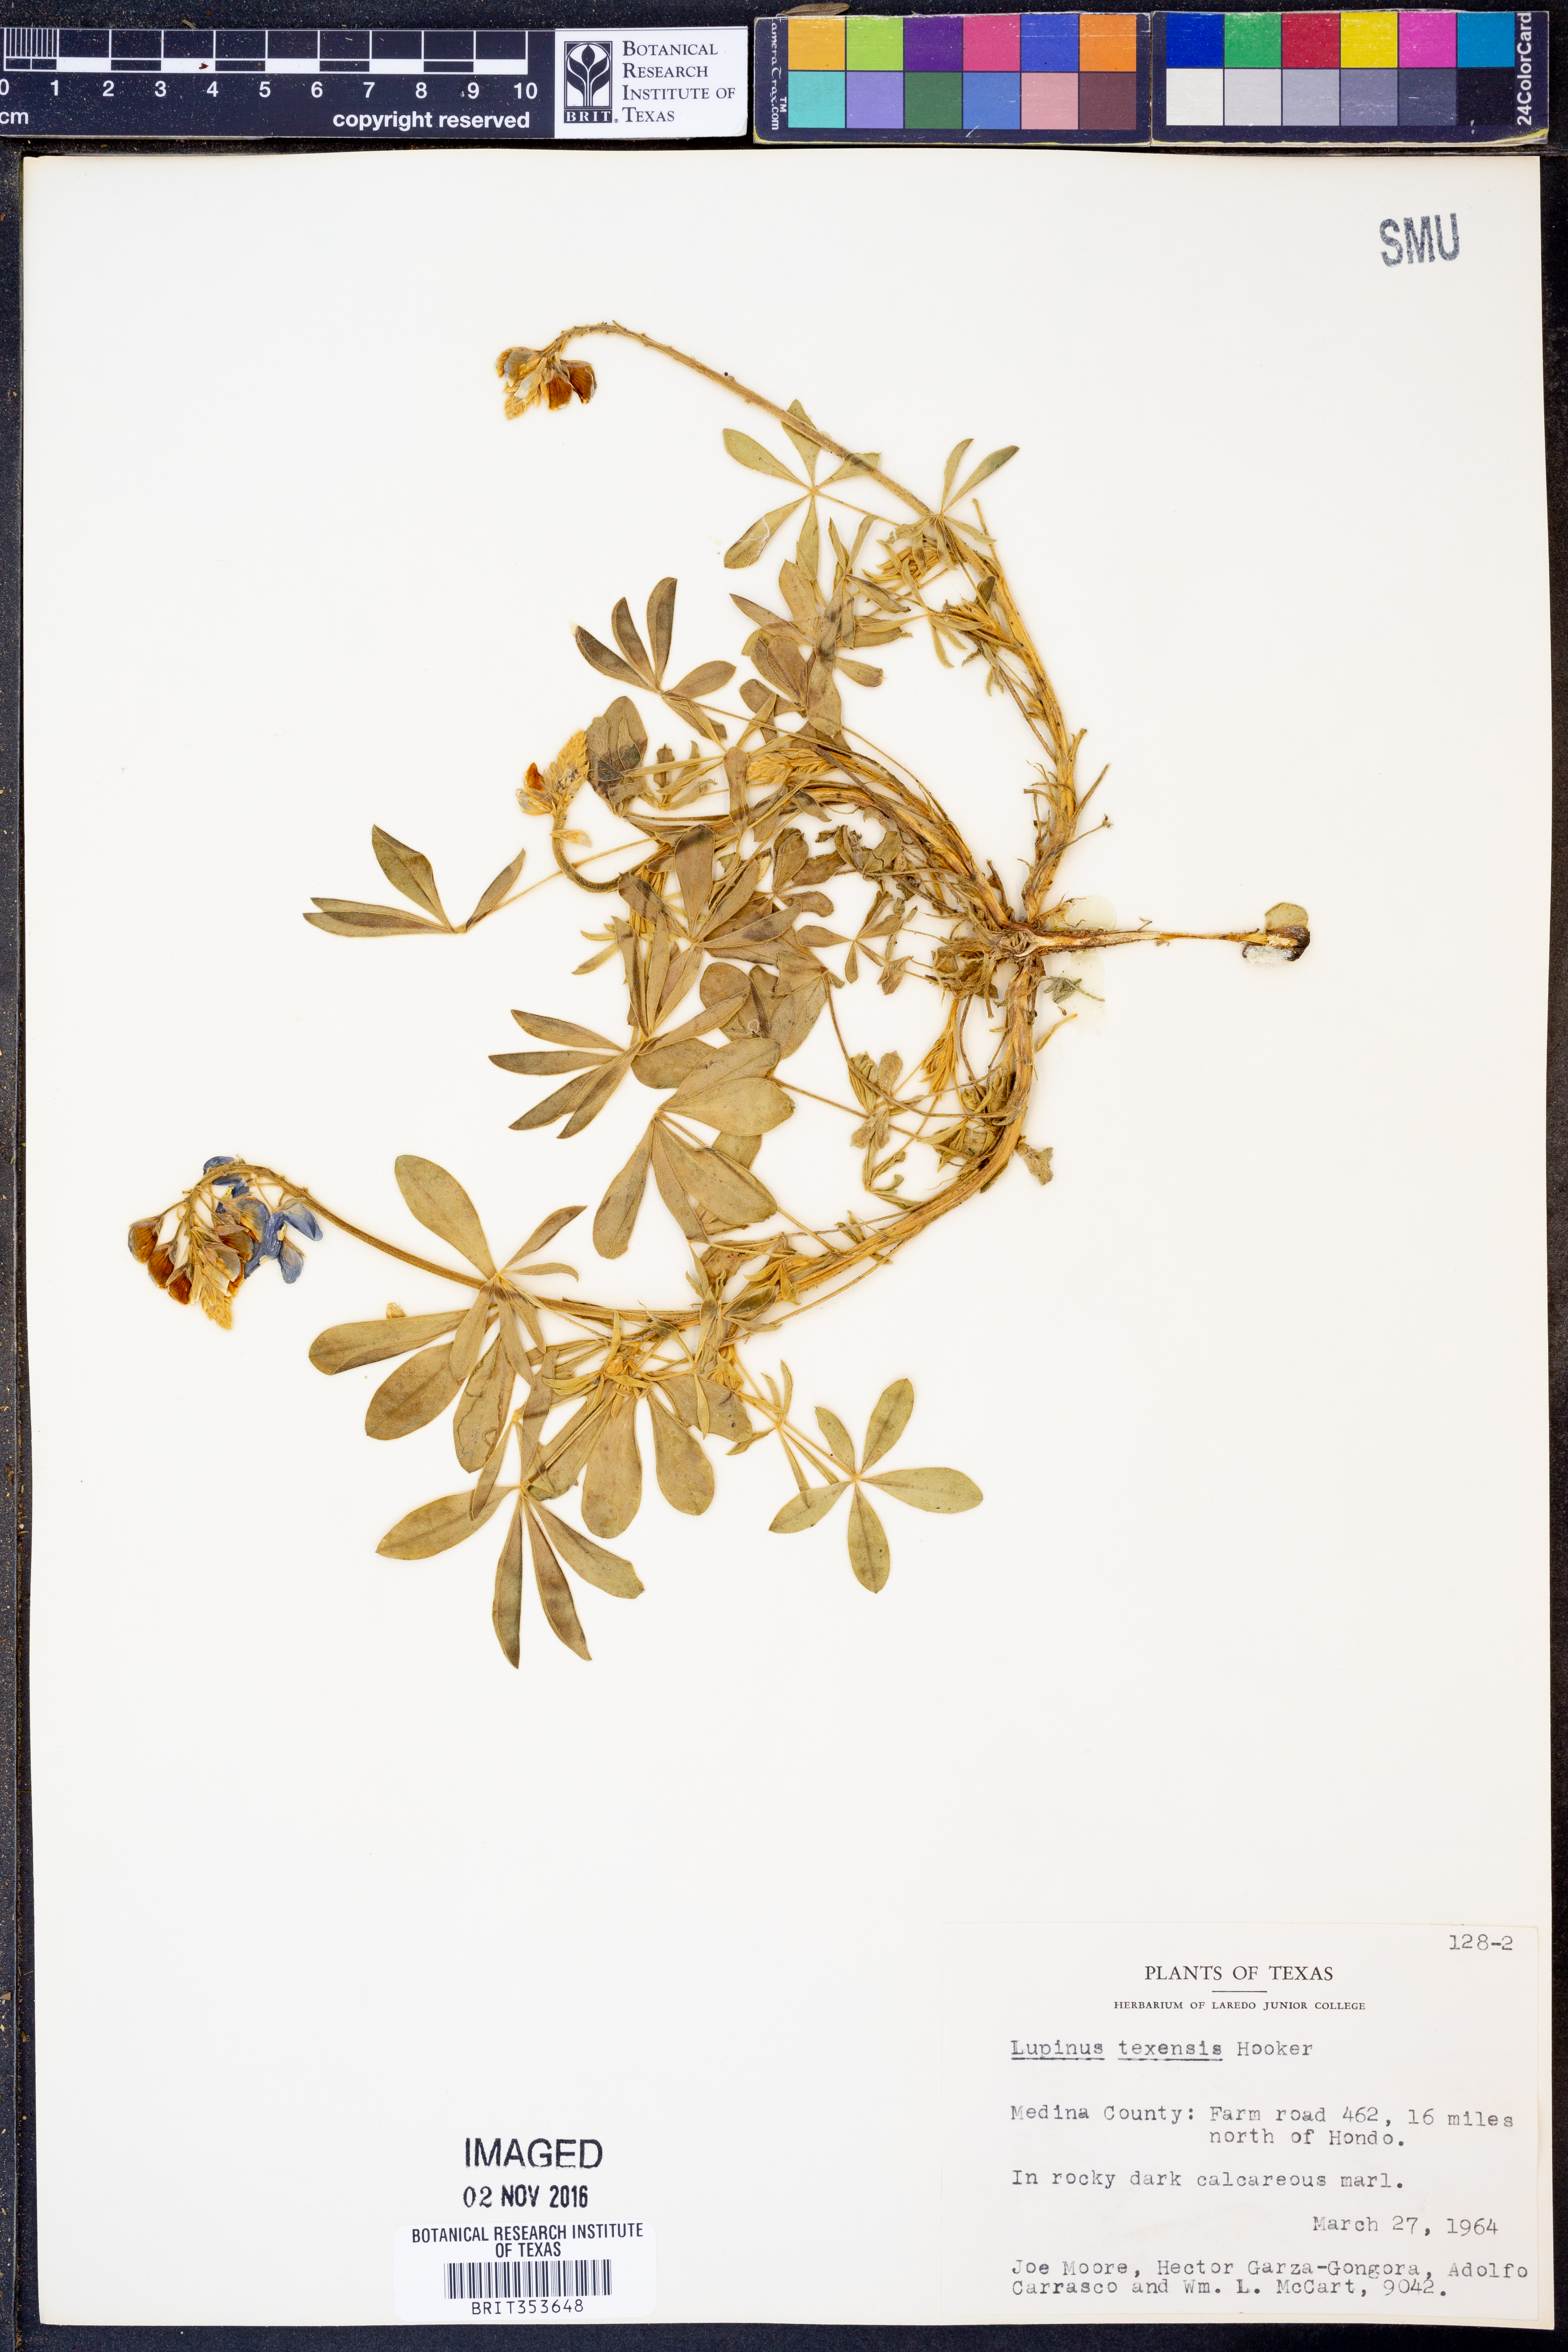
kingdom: Plantae
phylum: Tracheophyta
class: Magnoliopsida
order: Fabales
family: Fabaceae
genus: Lupinus
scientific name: Lupinus texensis
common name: Texas bluebonnet
